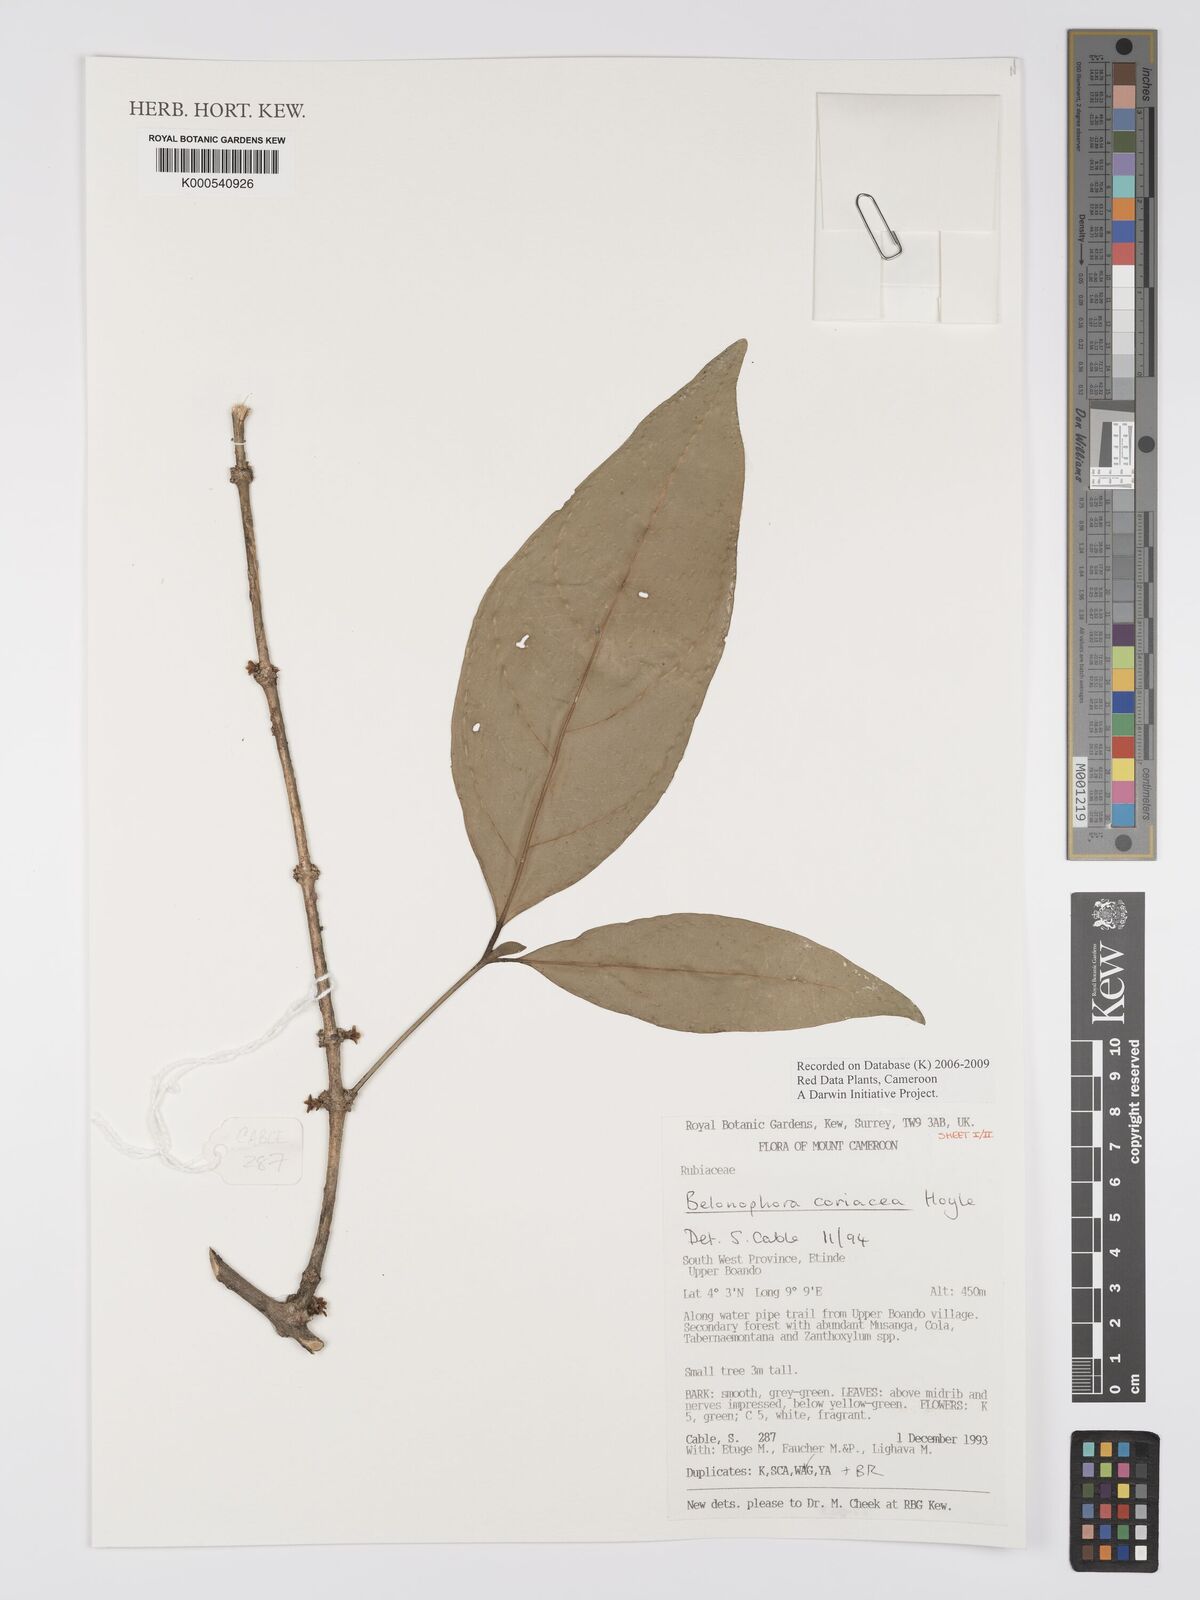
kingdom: Plantae
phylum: Tracheophyta
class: Magnoliopsida
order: Gentianales
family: Rubiaceae
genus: Belonophora
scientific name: Belonophora coriacea
